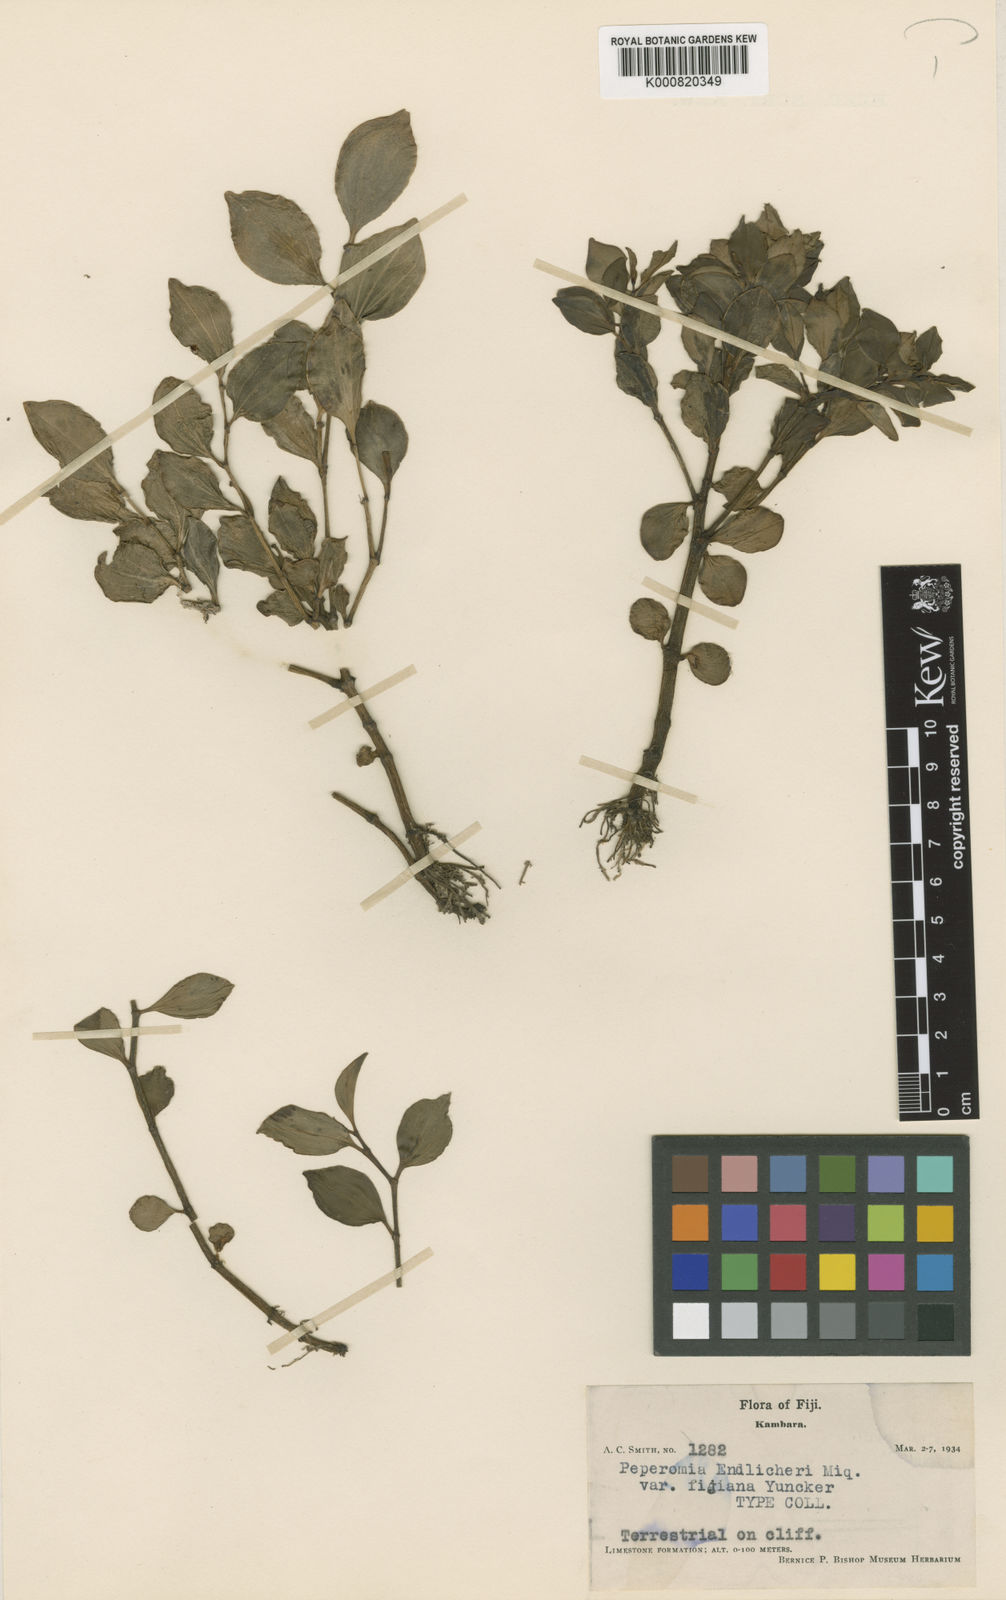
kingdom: Plantae
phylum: Tracheophyta
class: Magnoliopsida
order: Piperales
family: Piperaceae
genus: Peperomia
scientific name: Peperomia urvilleana
